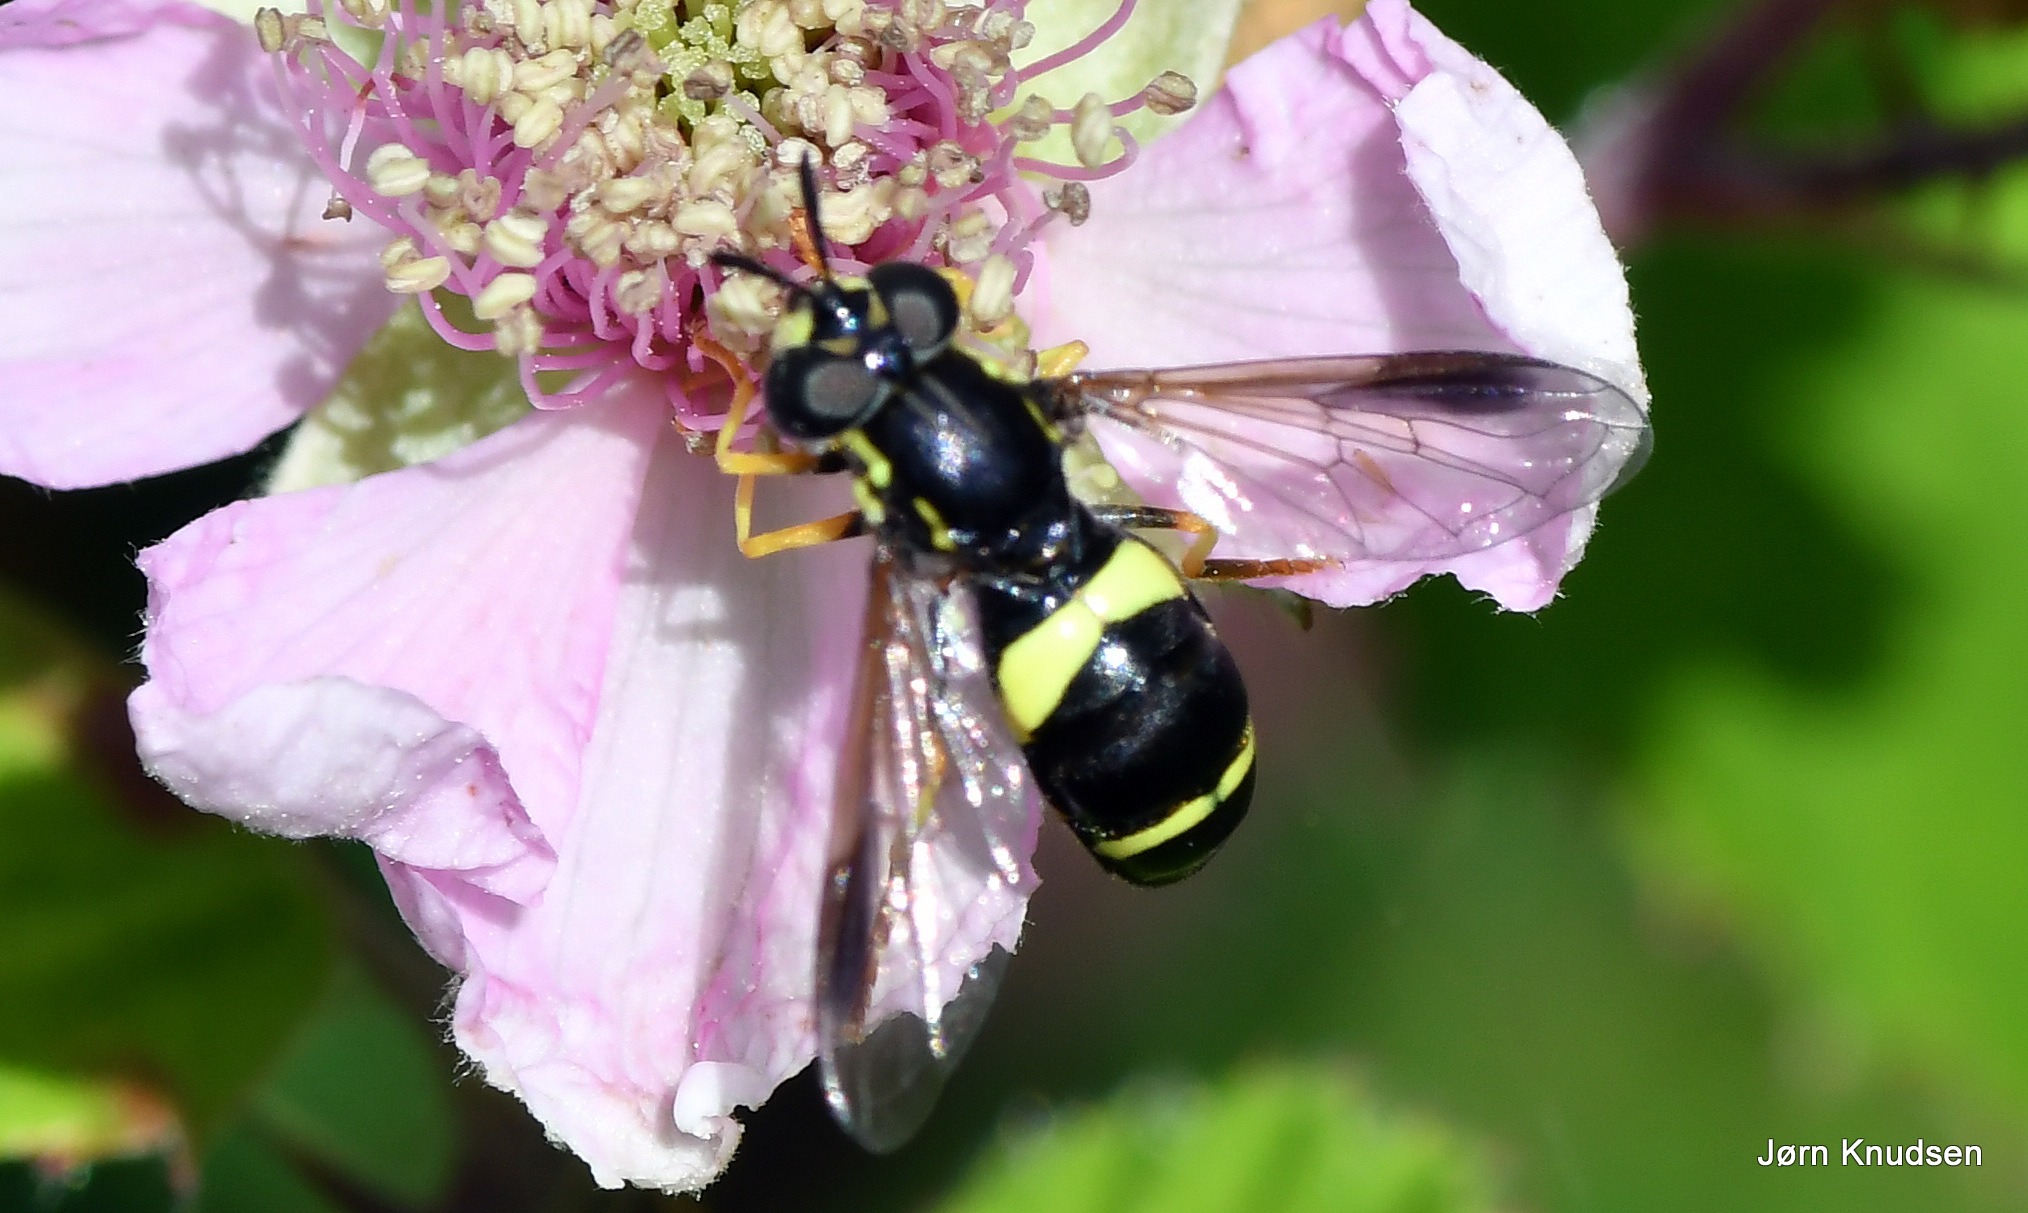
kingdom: Animalia
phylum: Arthropoda
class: Insecta
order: Diptera
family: Syrphidae
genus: Chrysotoxum
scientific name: Chrysotoxum bicincta
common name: Tobåndet hvepsesvirreflue
